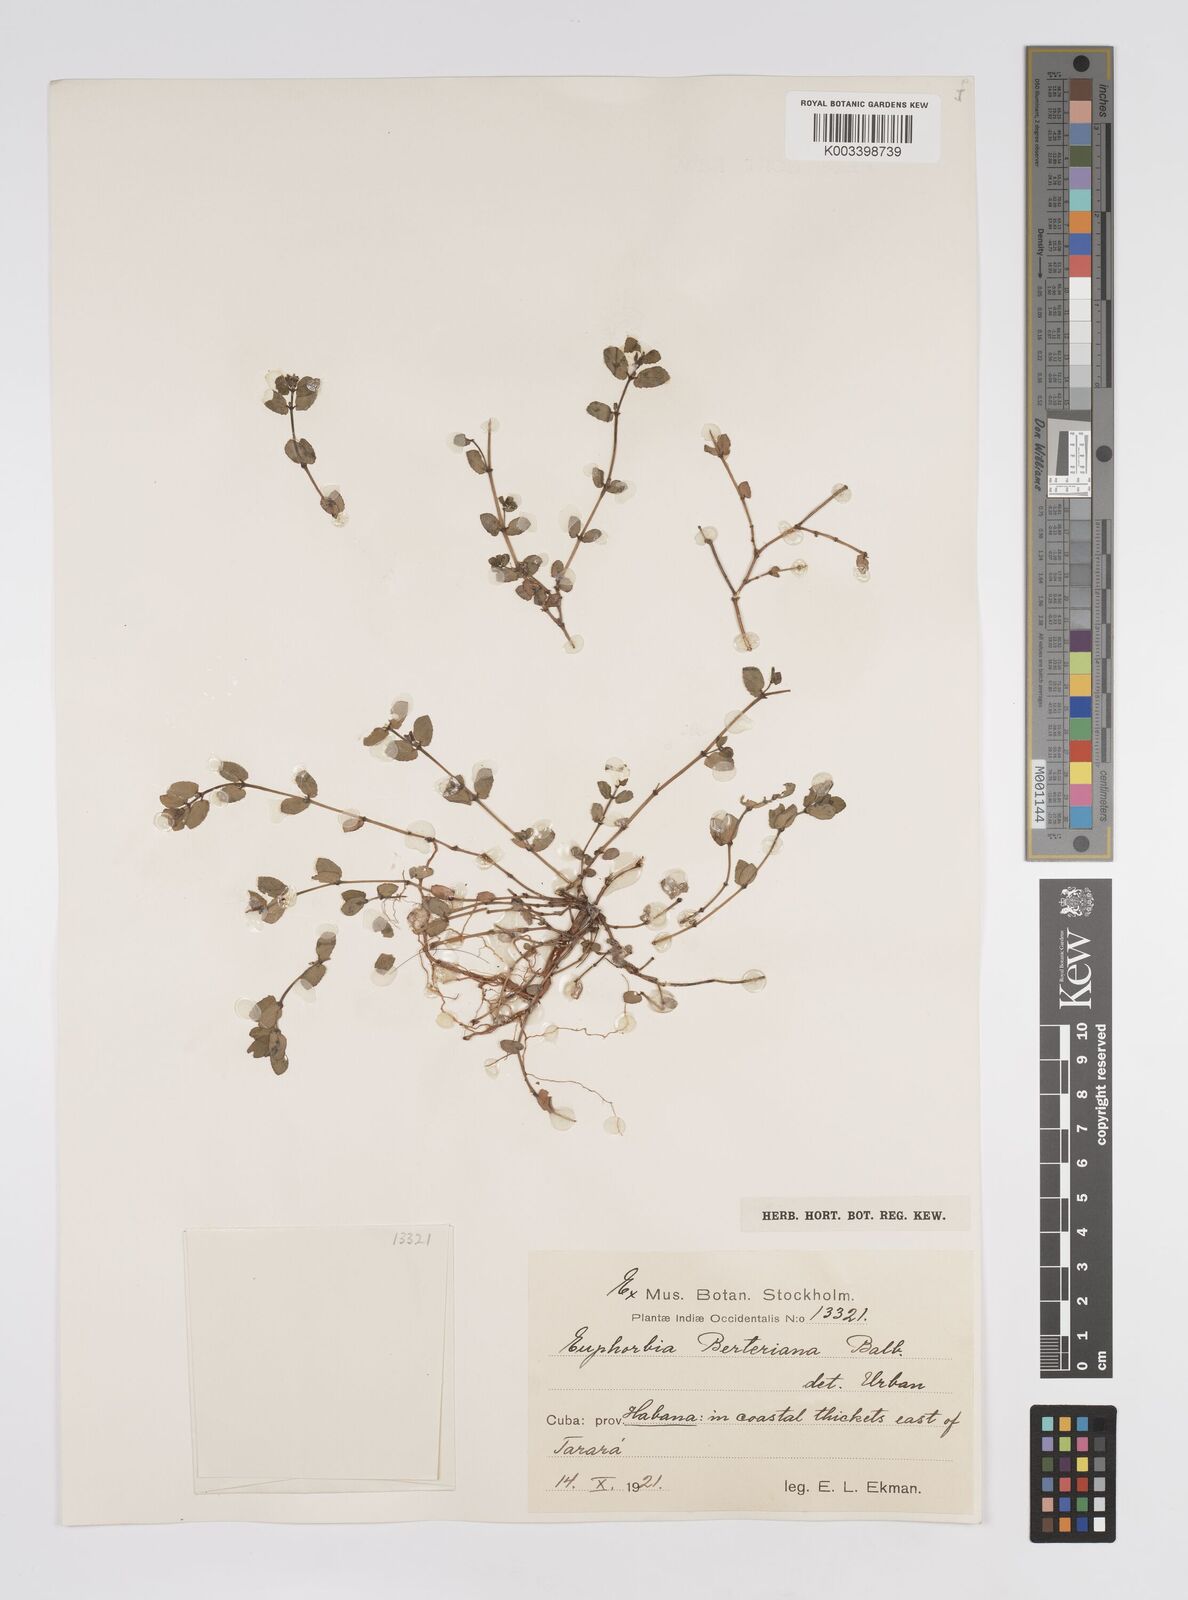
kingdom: Plantae
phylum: Tracheophyta
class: Magnoliopsida
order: Malpighiales
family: Euphorbiaceae
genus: Euphorbia
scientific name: Euphorbia berteroana
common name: Bertero's sandmat
